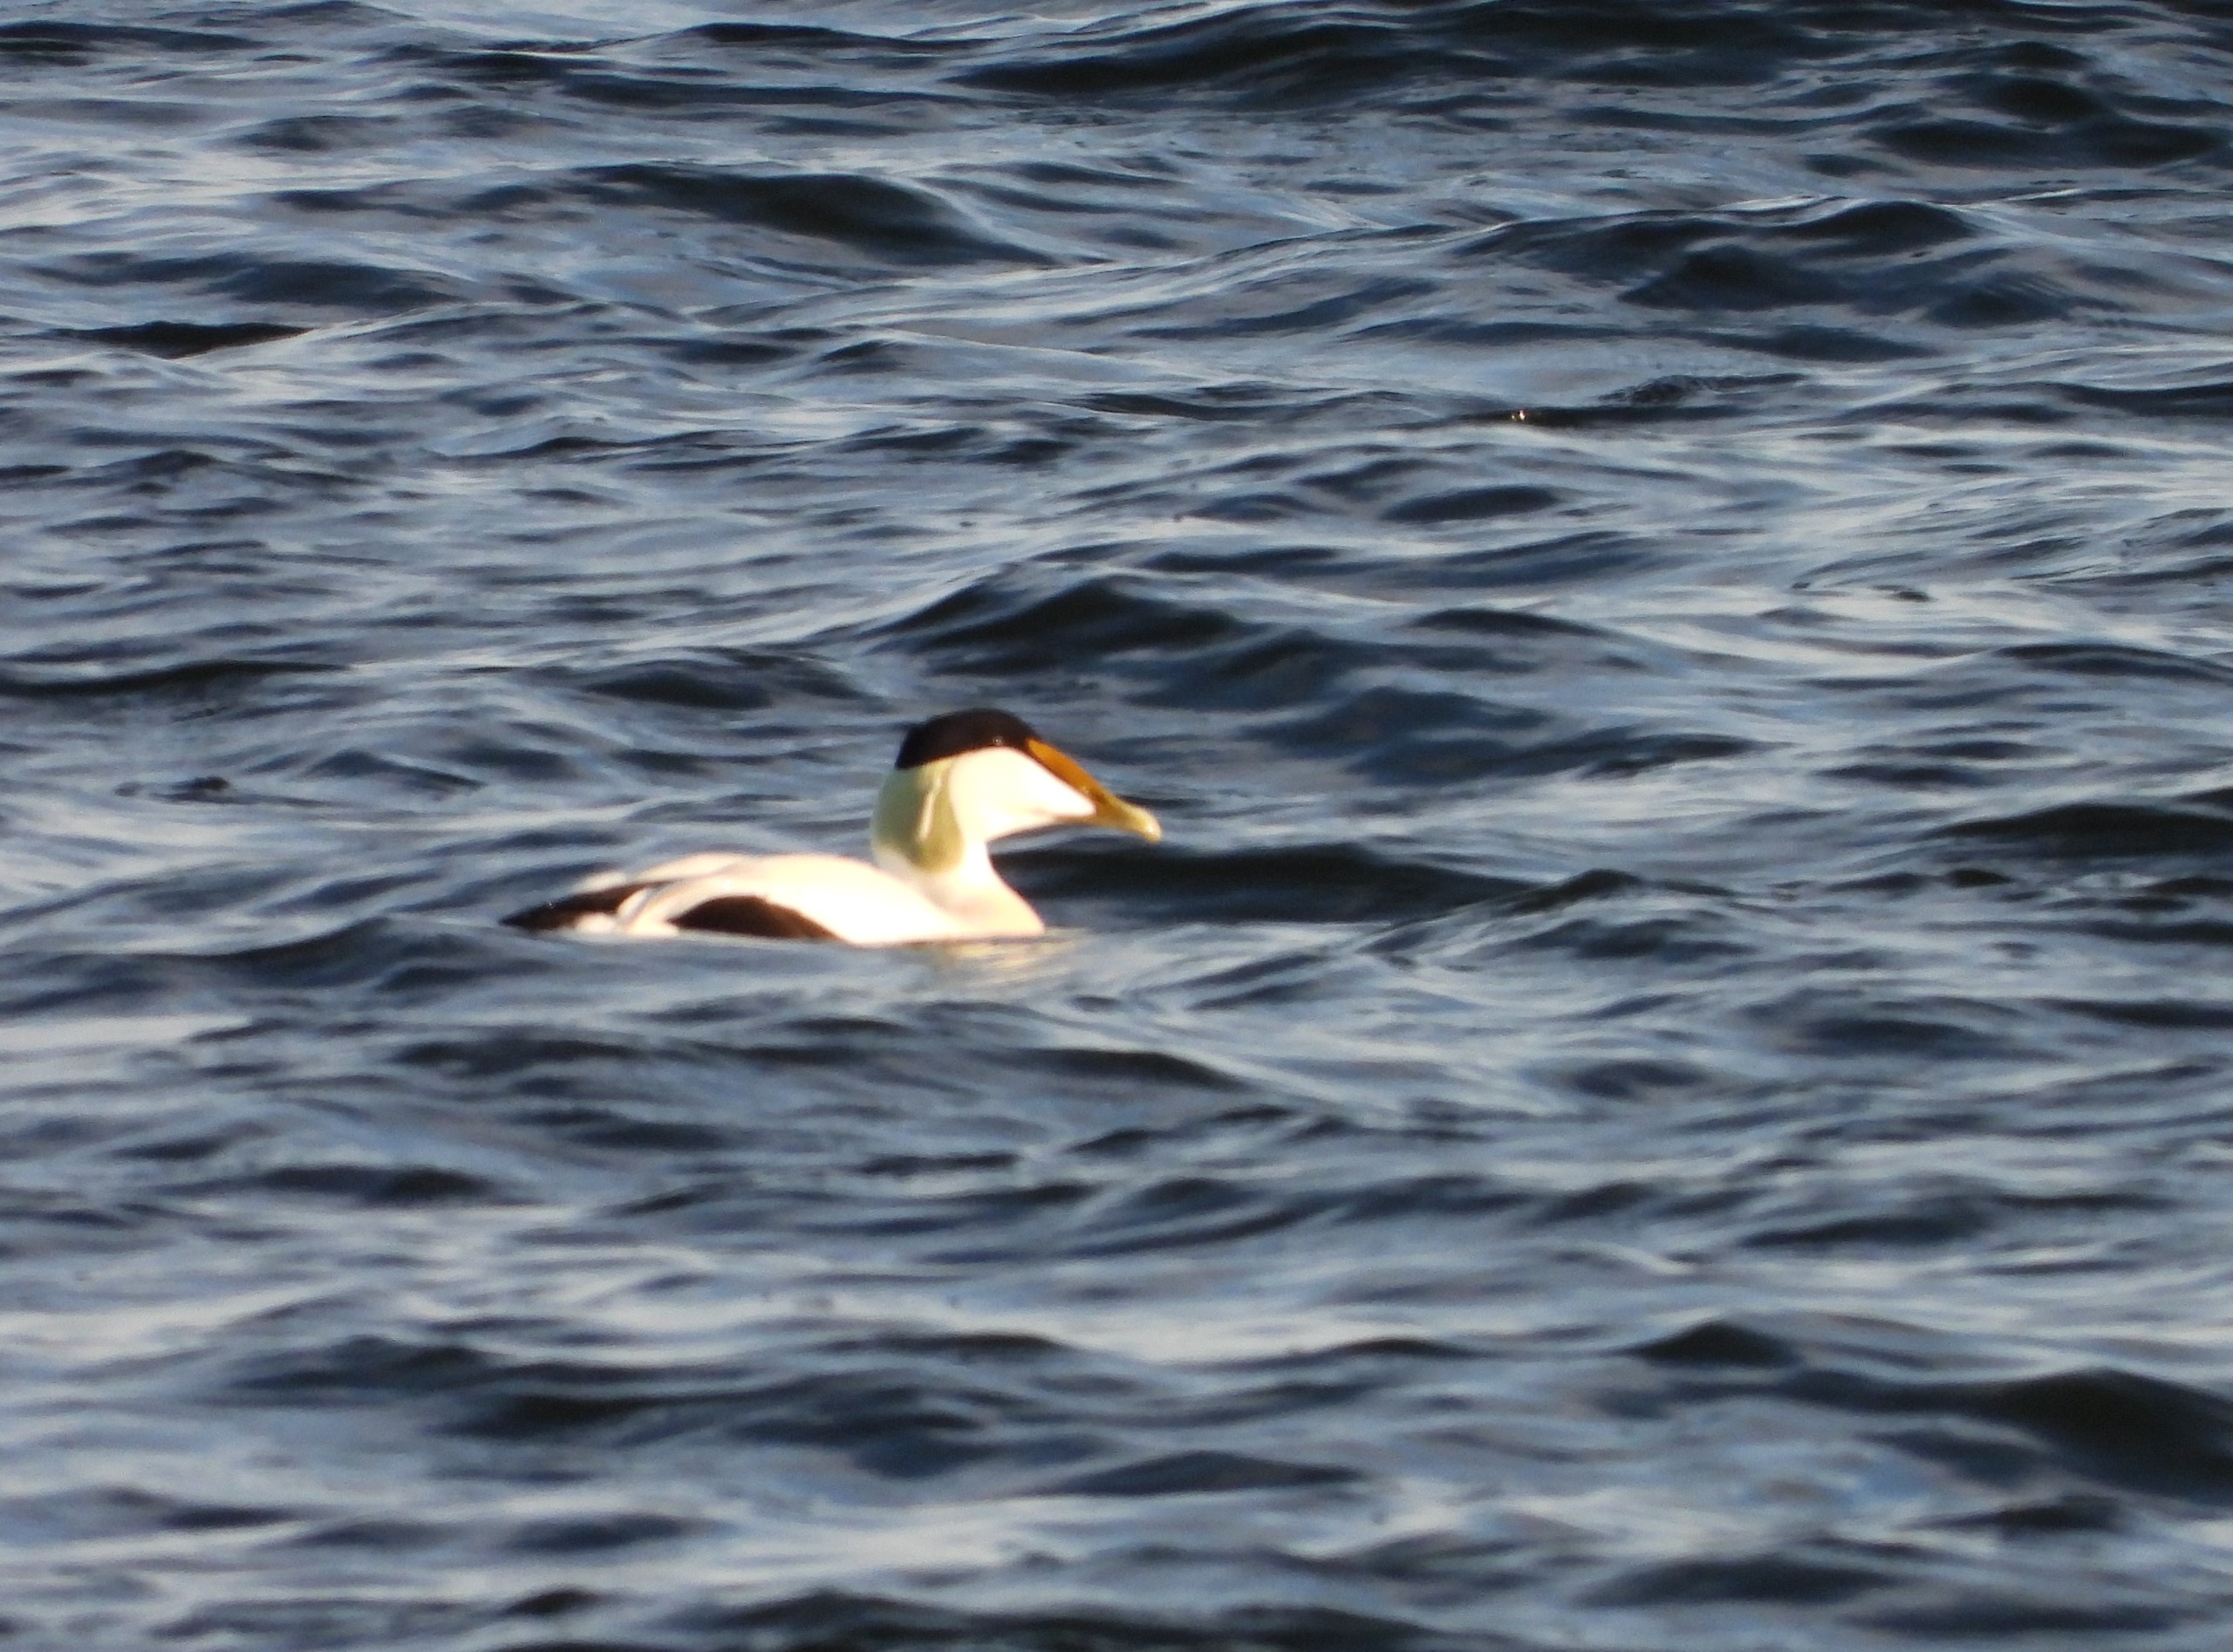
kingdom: Animalia
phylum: Chordata
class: Aves
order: Anseriformes
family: Anatidae
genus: Somateria
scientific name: Somateria mollissima
